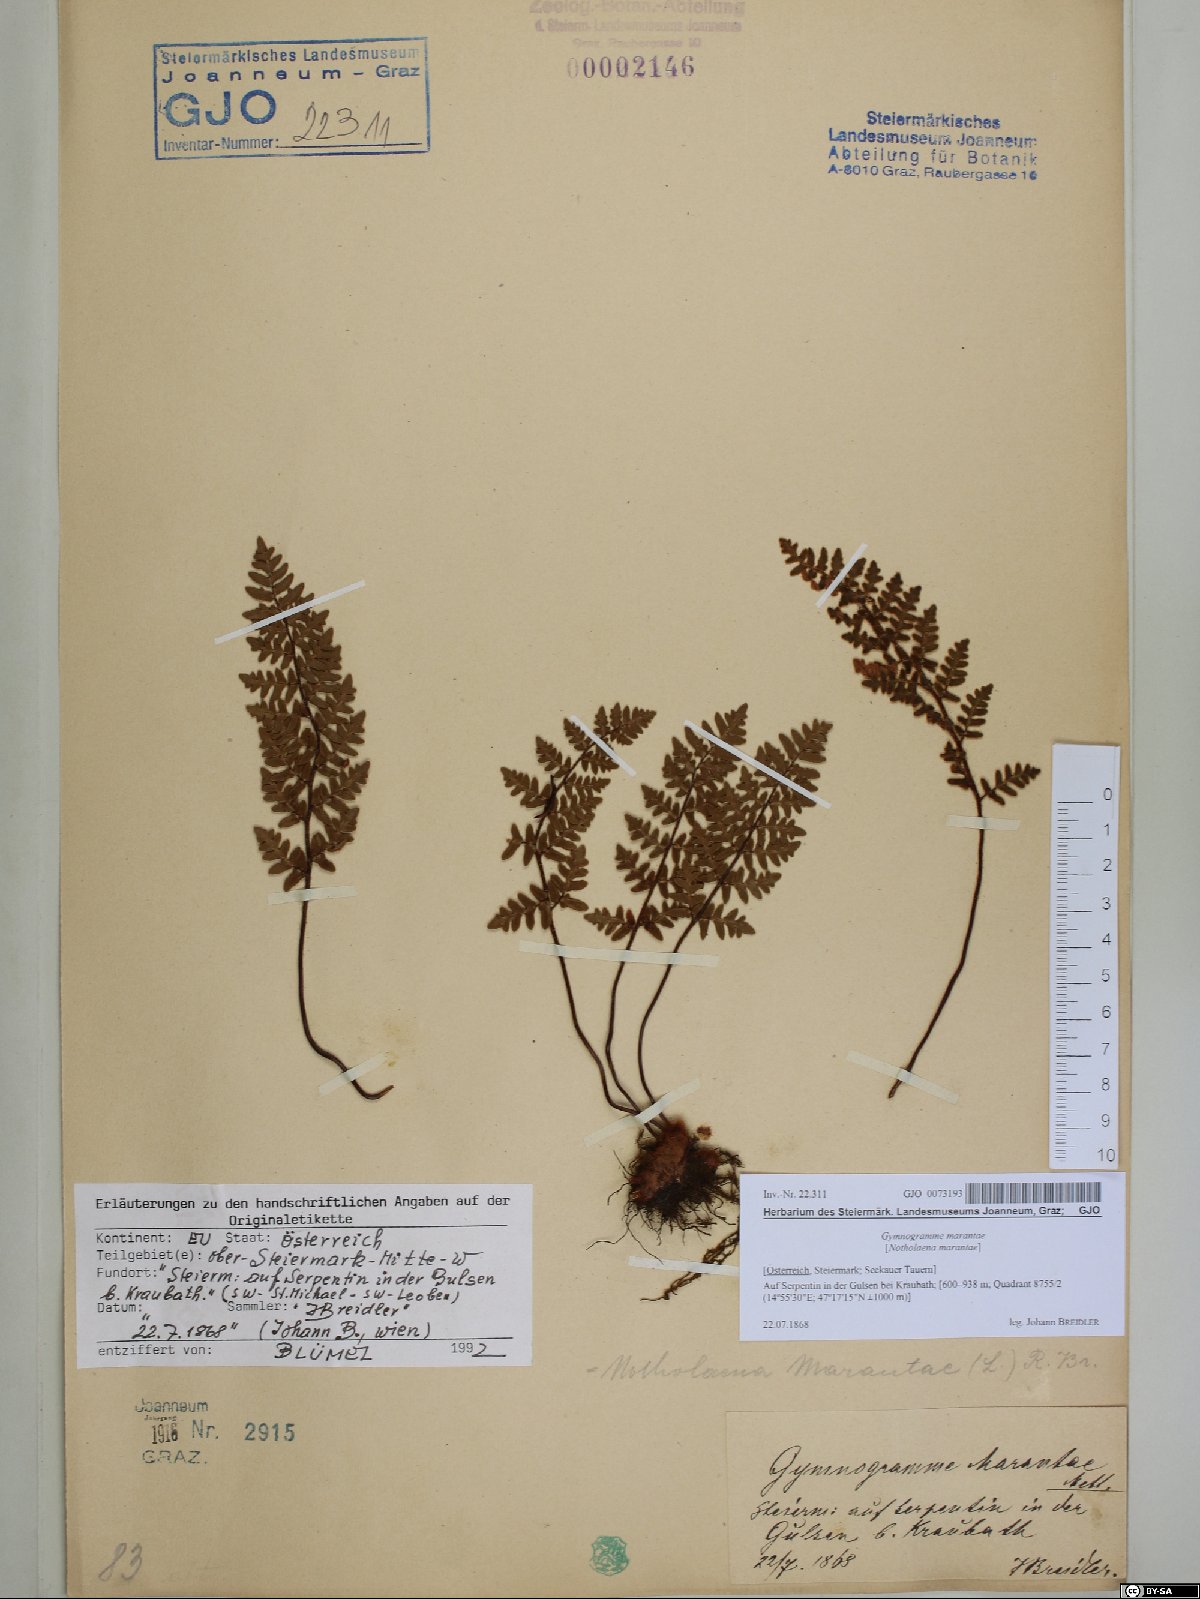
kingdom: Plantae
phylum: Tracheophyta
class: Polypodiopsida
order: Polypodiales
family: Pteridaceae
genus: Paragymnopteris
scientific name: Paragymnopteris marantae
